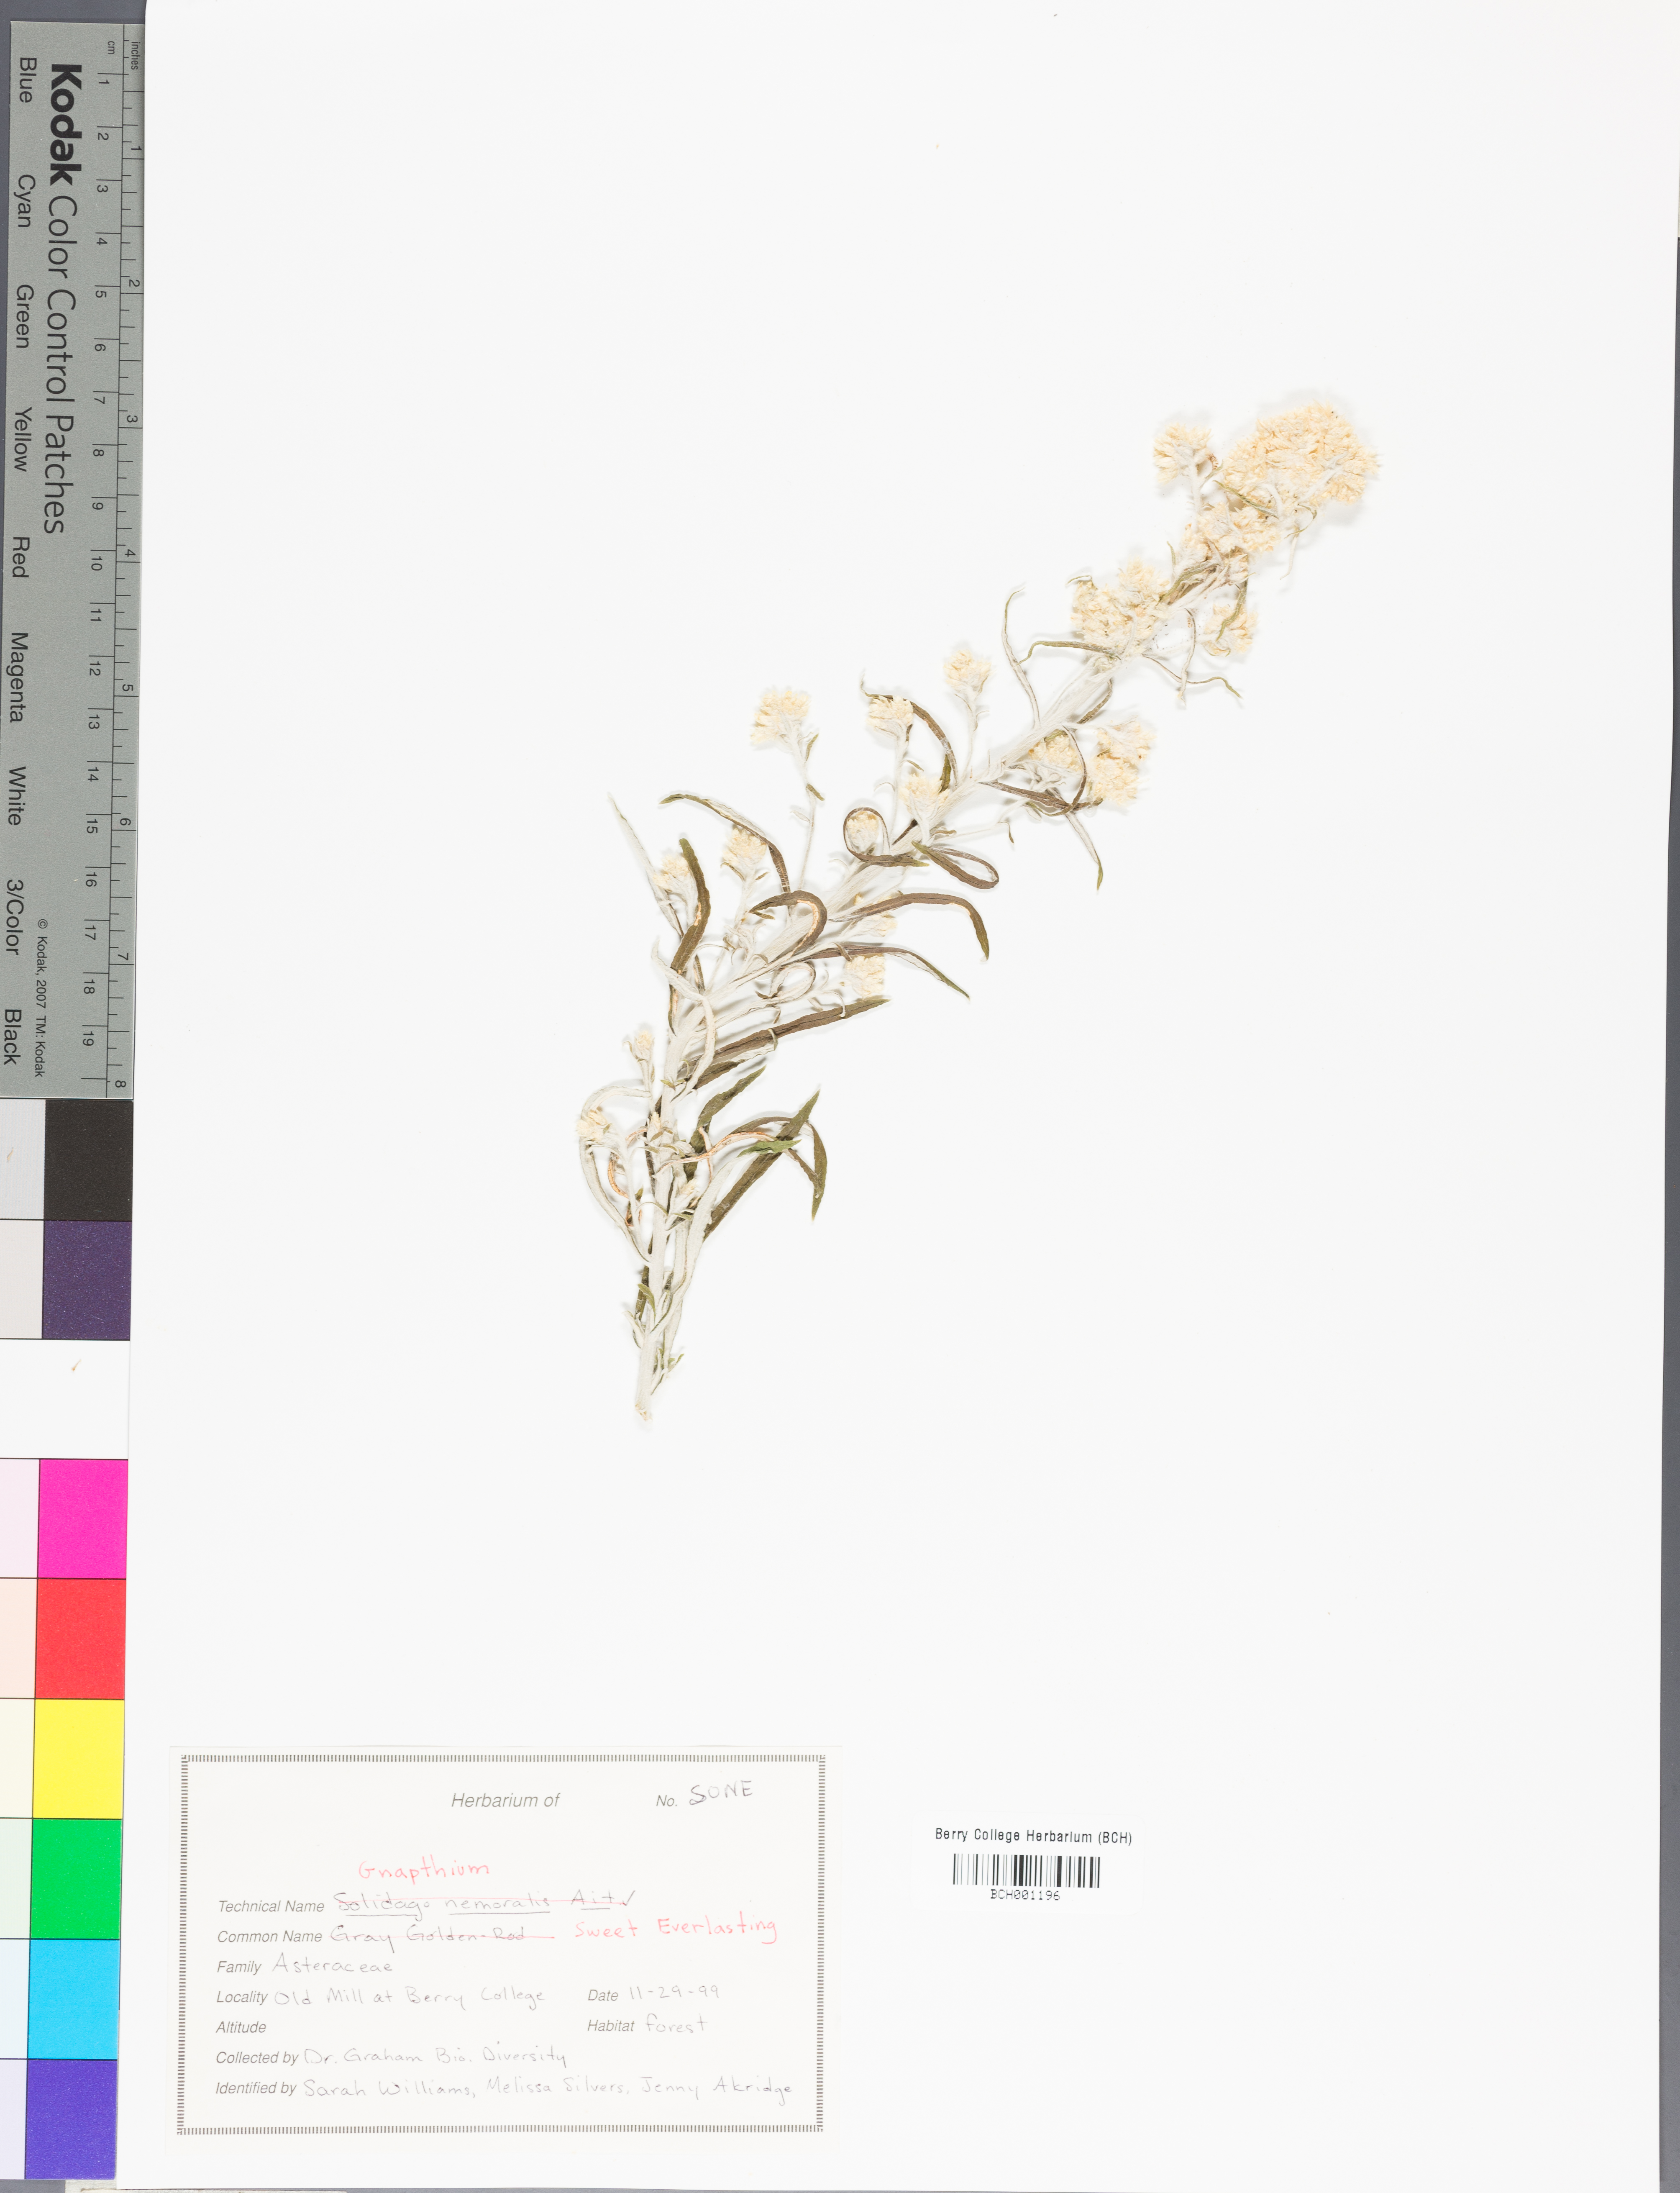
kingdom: Plantae
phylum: Tracheophyta
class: Magnoliopsida
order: Asterales
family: Asteraceae
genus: Solidago
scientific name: Solidago nemoralis
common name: Grey goldenrod
